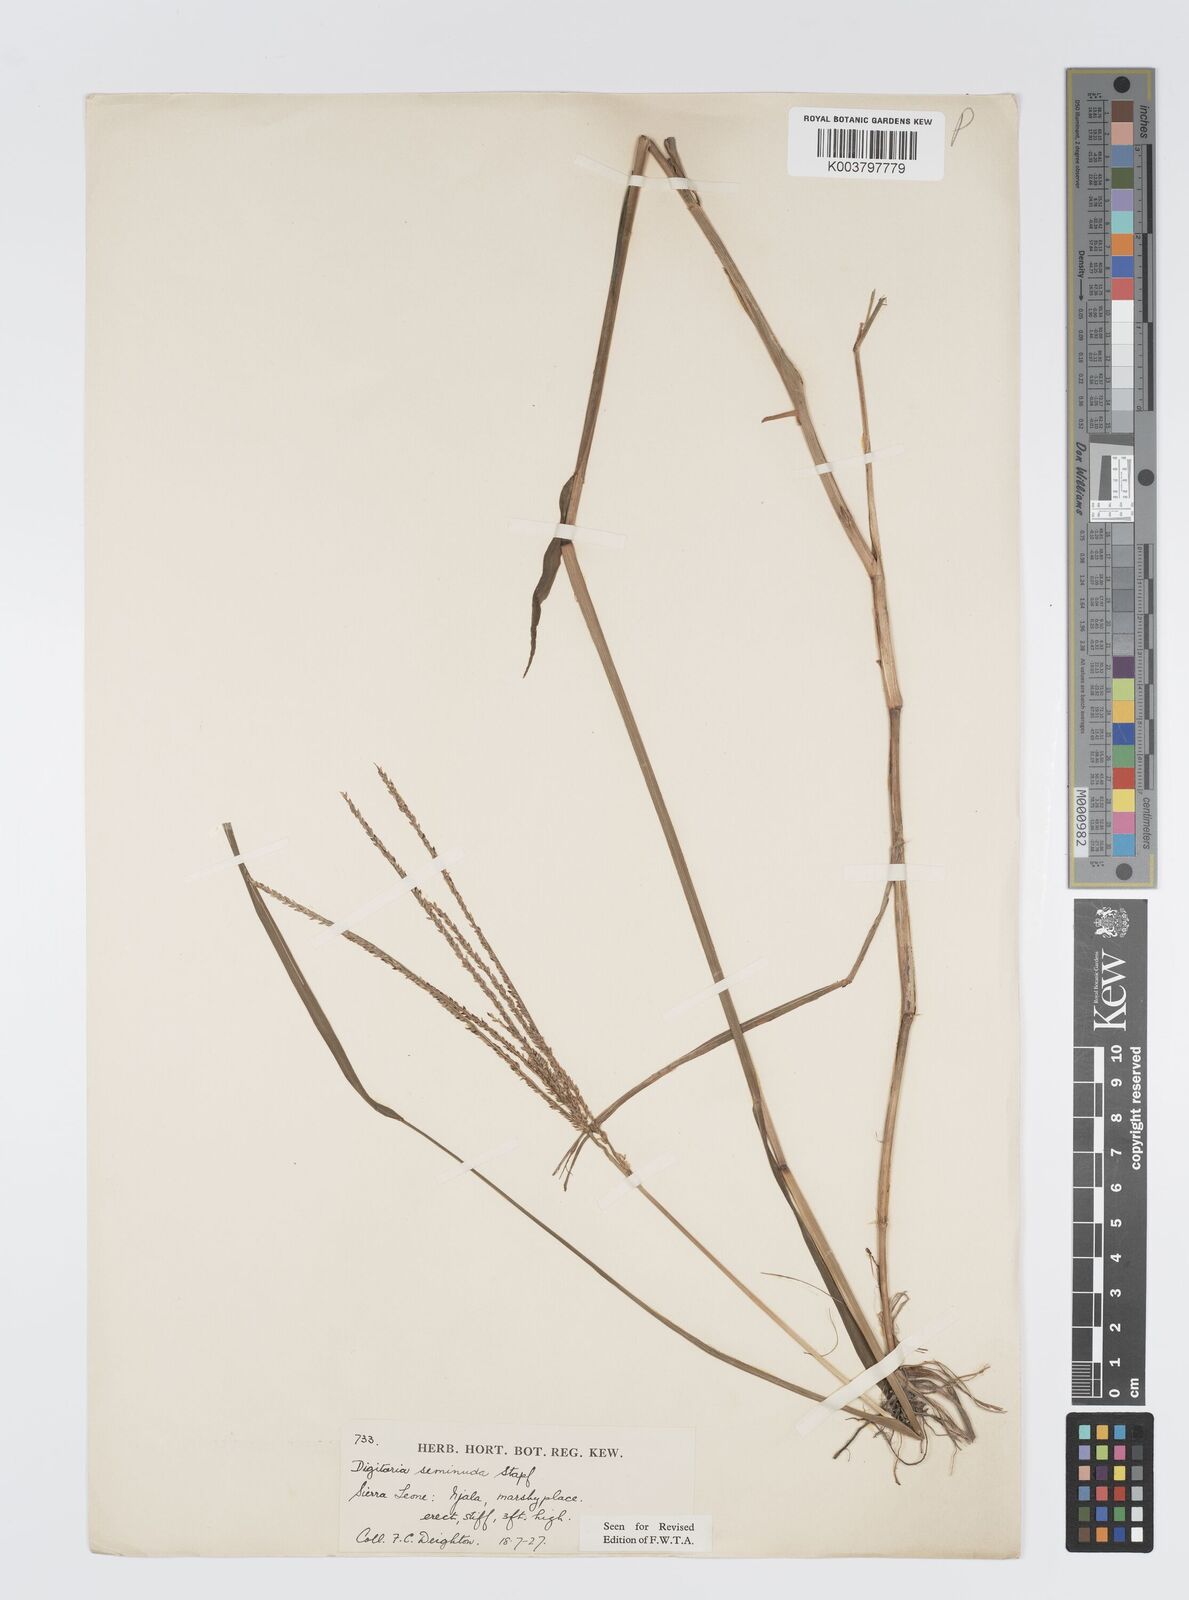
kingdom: Plantae
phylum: Tracheophyta
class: Liliopsida
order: Poales
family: Poaceae
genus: Digitaria
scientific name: Digitaria atrofusca
